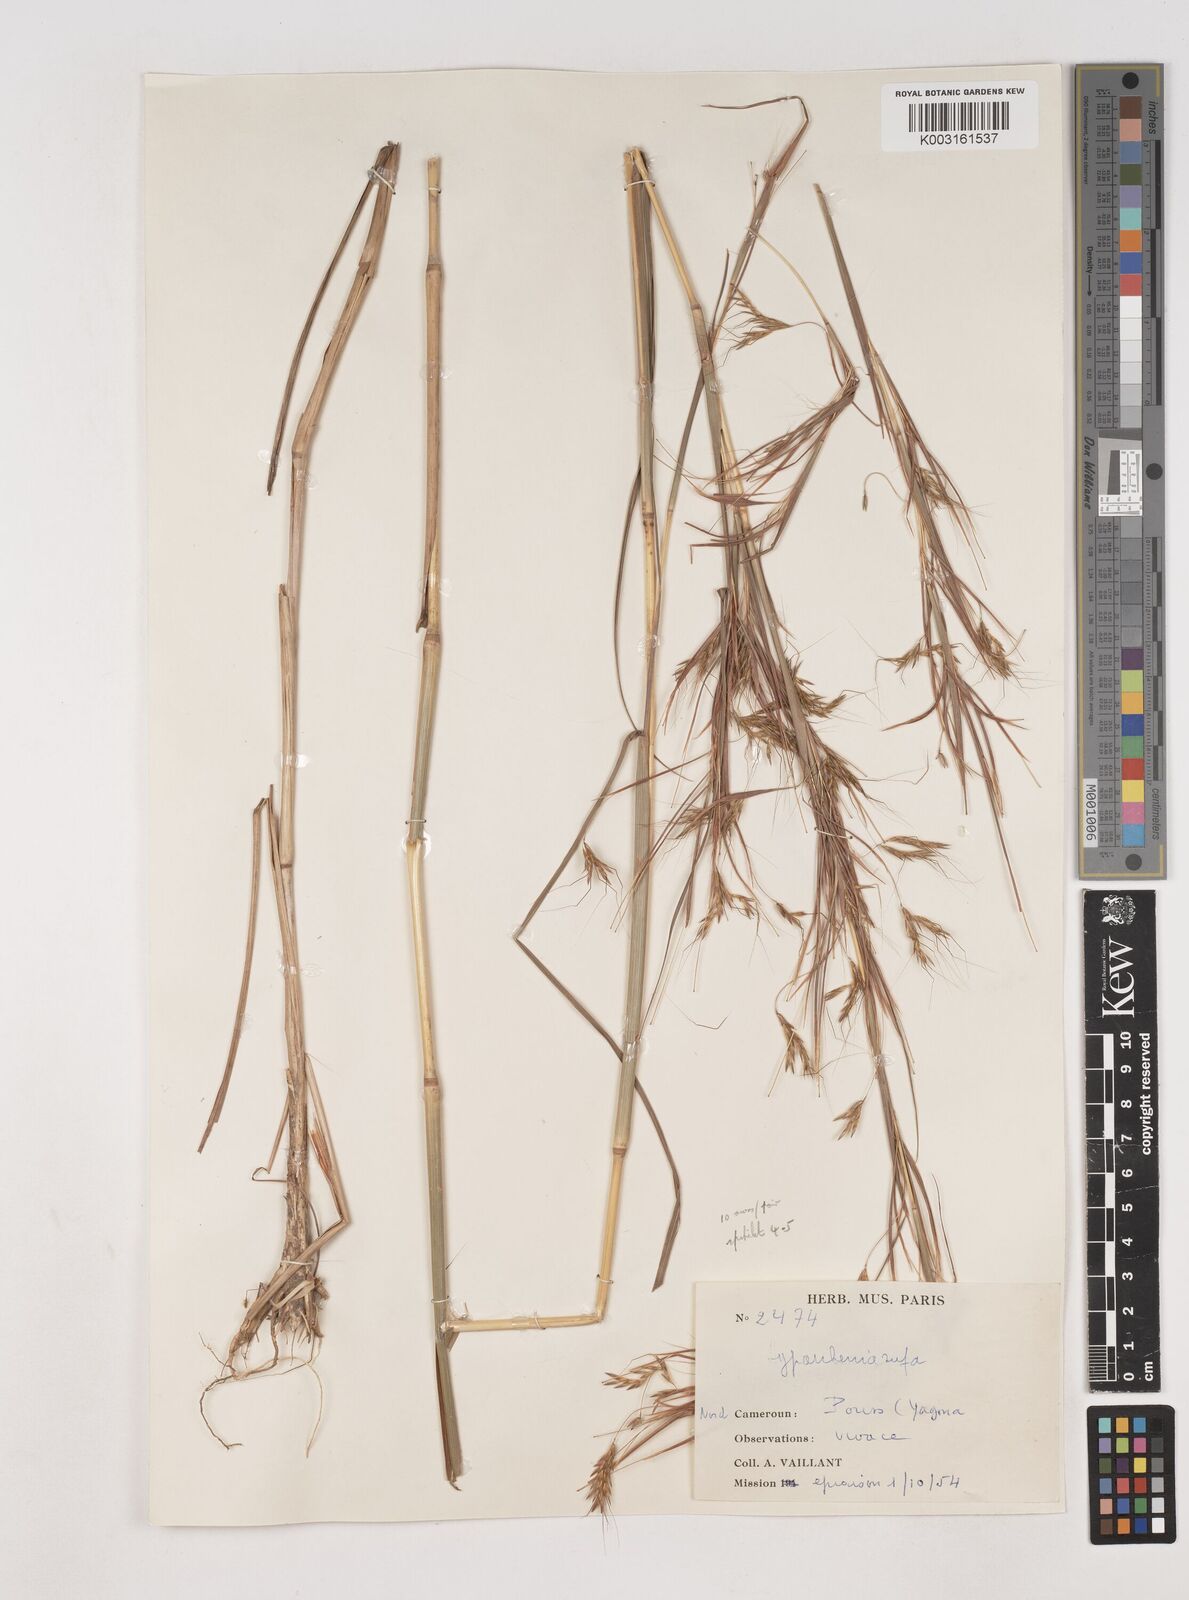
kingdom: Plantae
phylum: Tracheophyta
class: Liliopsida
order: Poales
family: Poaceae
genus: Hyparrhenia
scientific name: Hyparrhenia rufa
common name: Jaraguagrass
